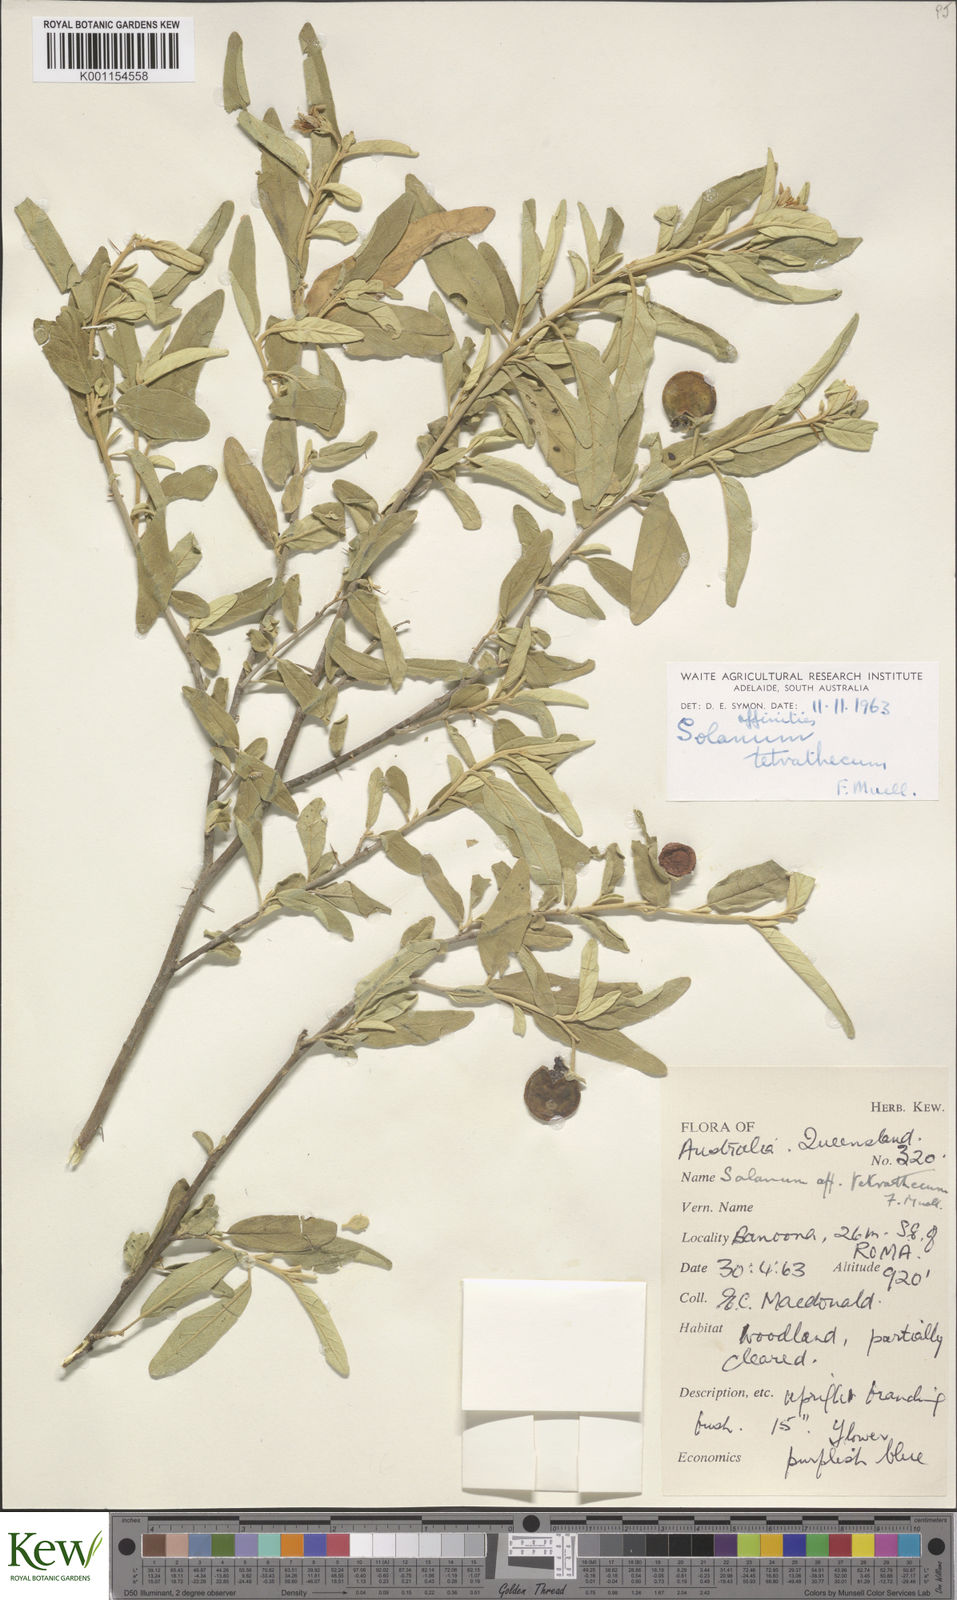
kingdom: Plantae
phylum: Tracheophyta
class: Magnoliopsida
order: Solanales
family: Solanaceae
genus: Solanum
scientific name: Solanum tetrathecum
